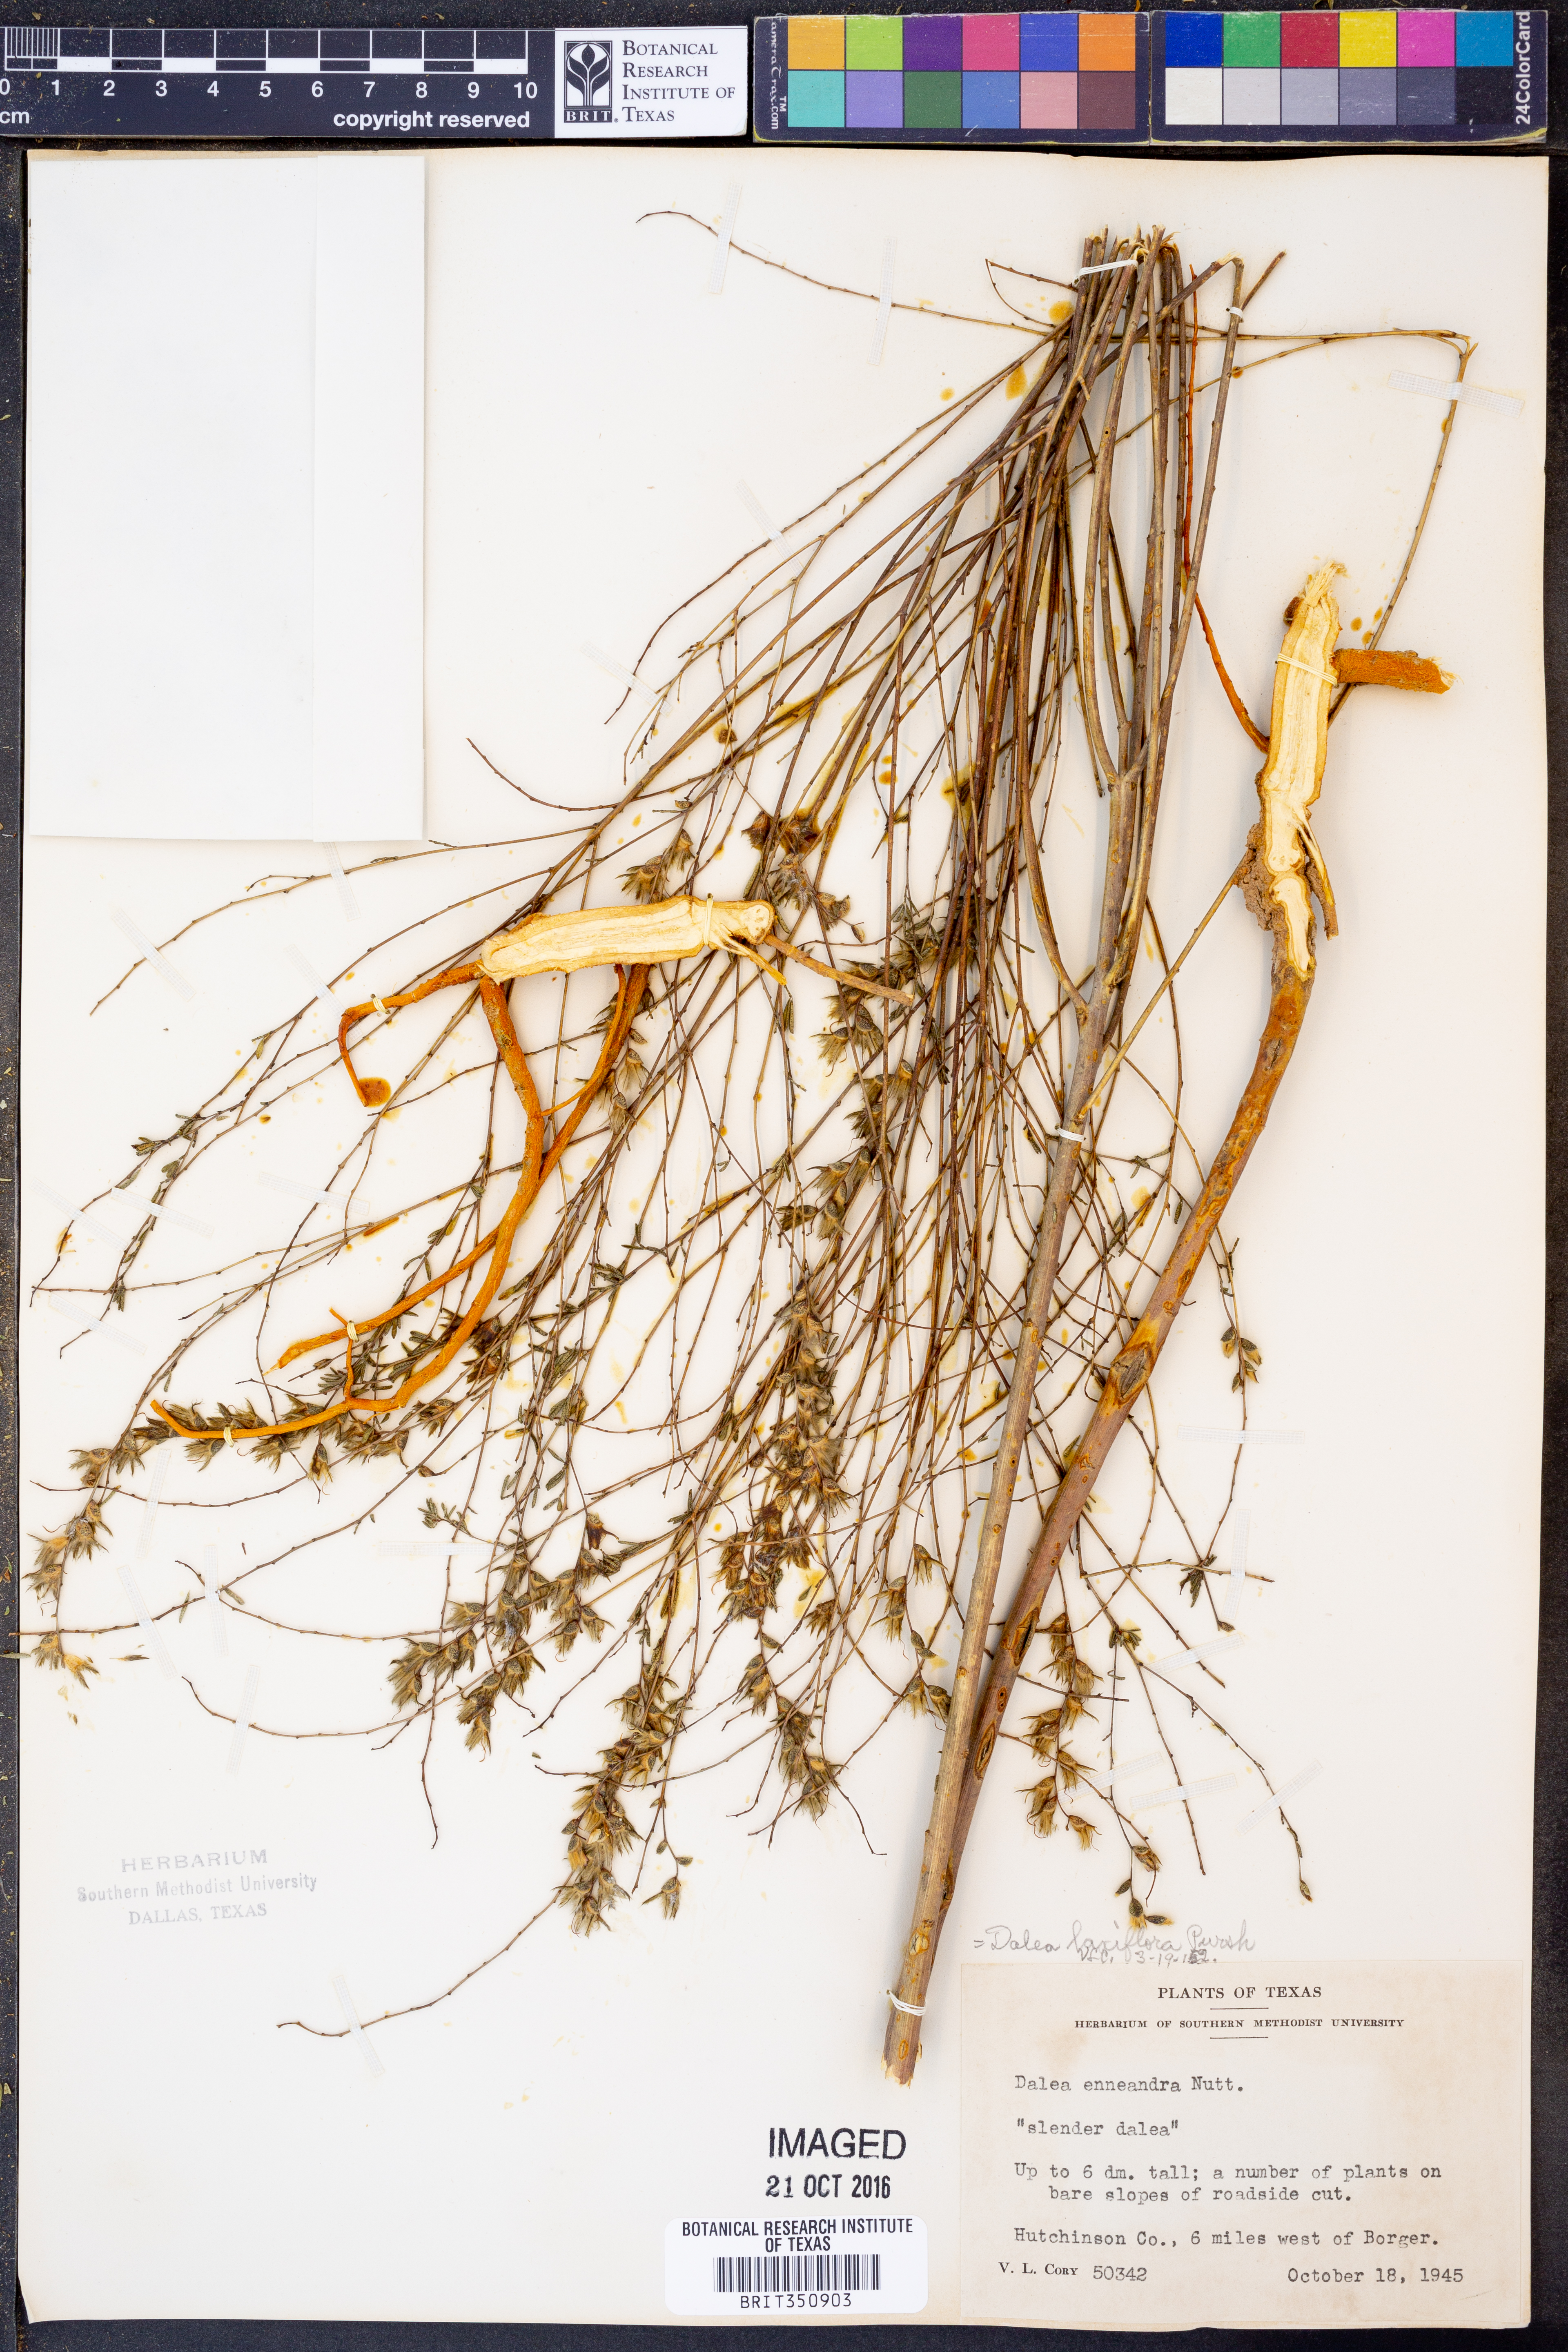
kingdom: Plantae
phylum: Tracheophyta
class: Magnoliopsida
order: Fabales
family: Fabaceae
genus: Dalea
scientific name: Dalea hegewischiana
